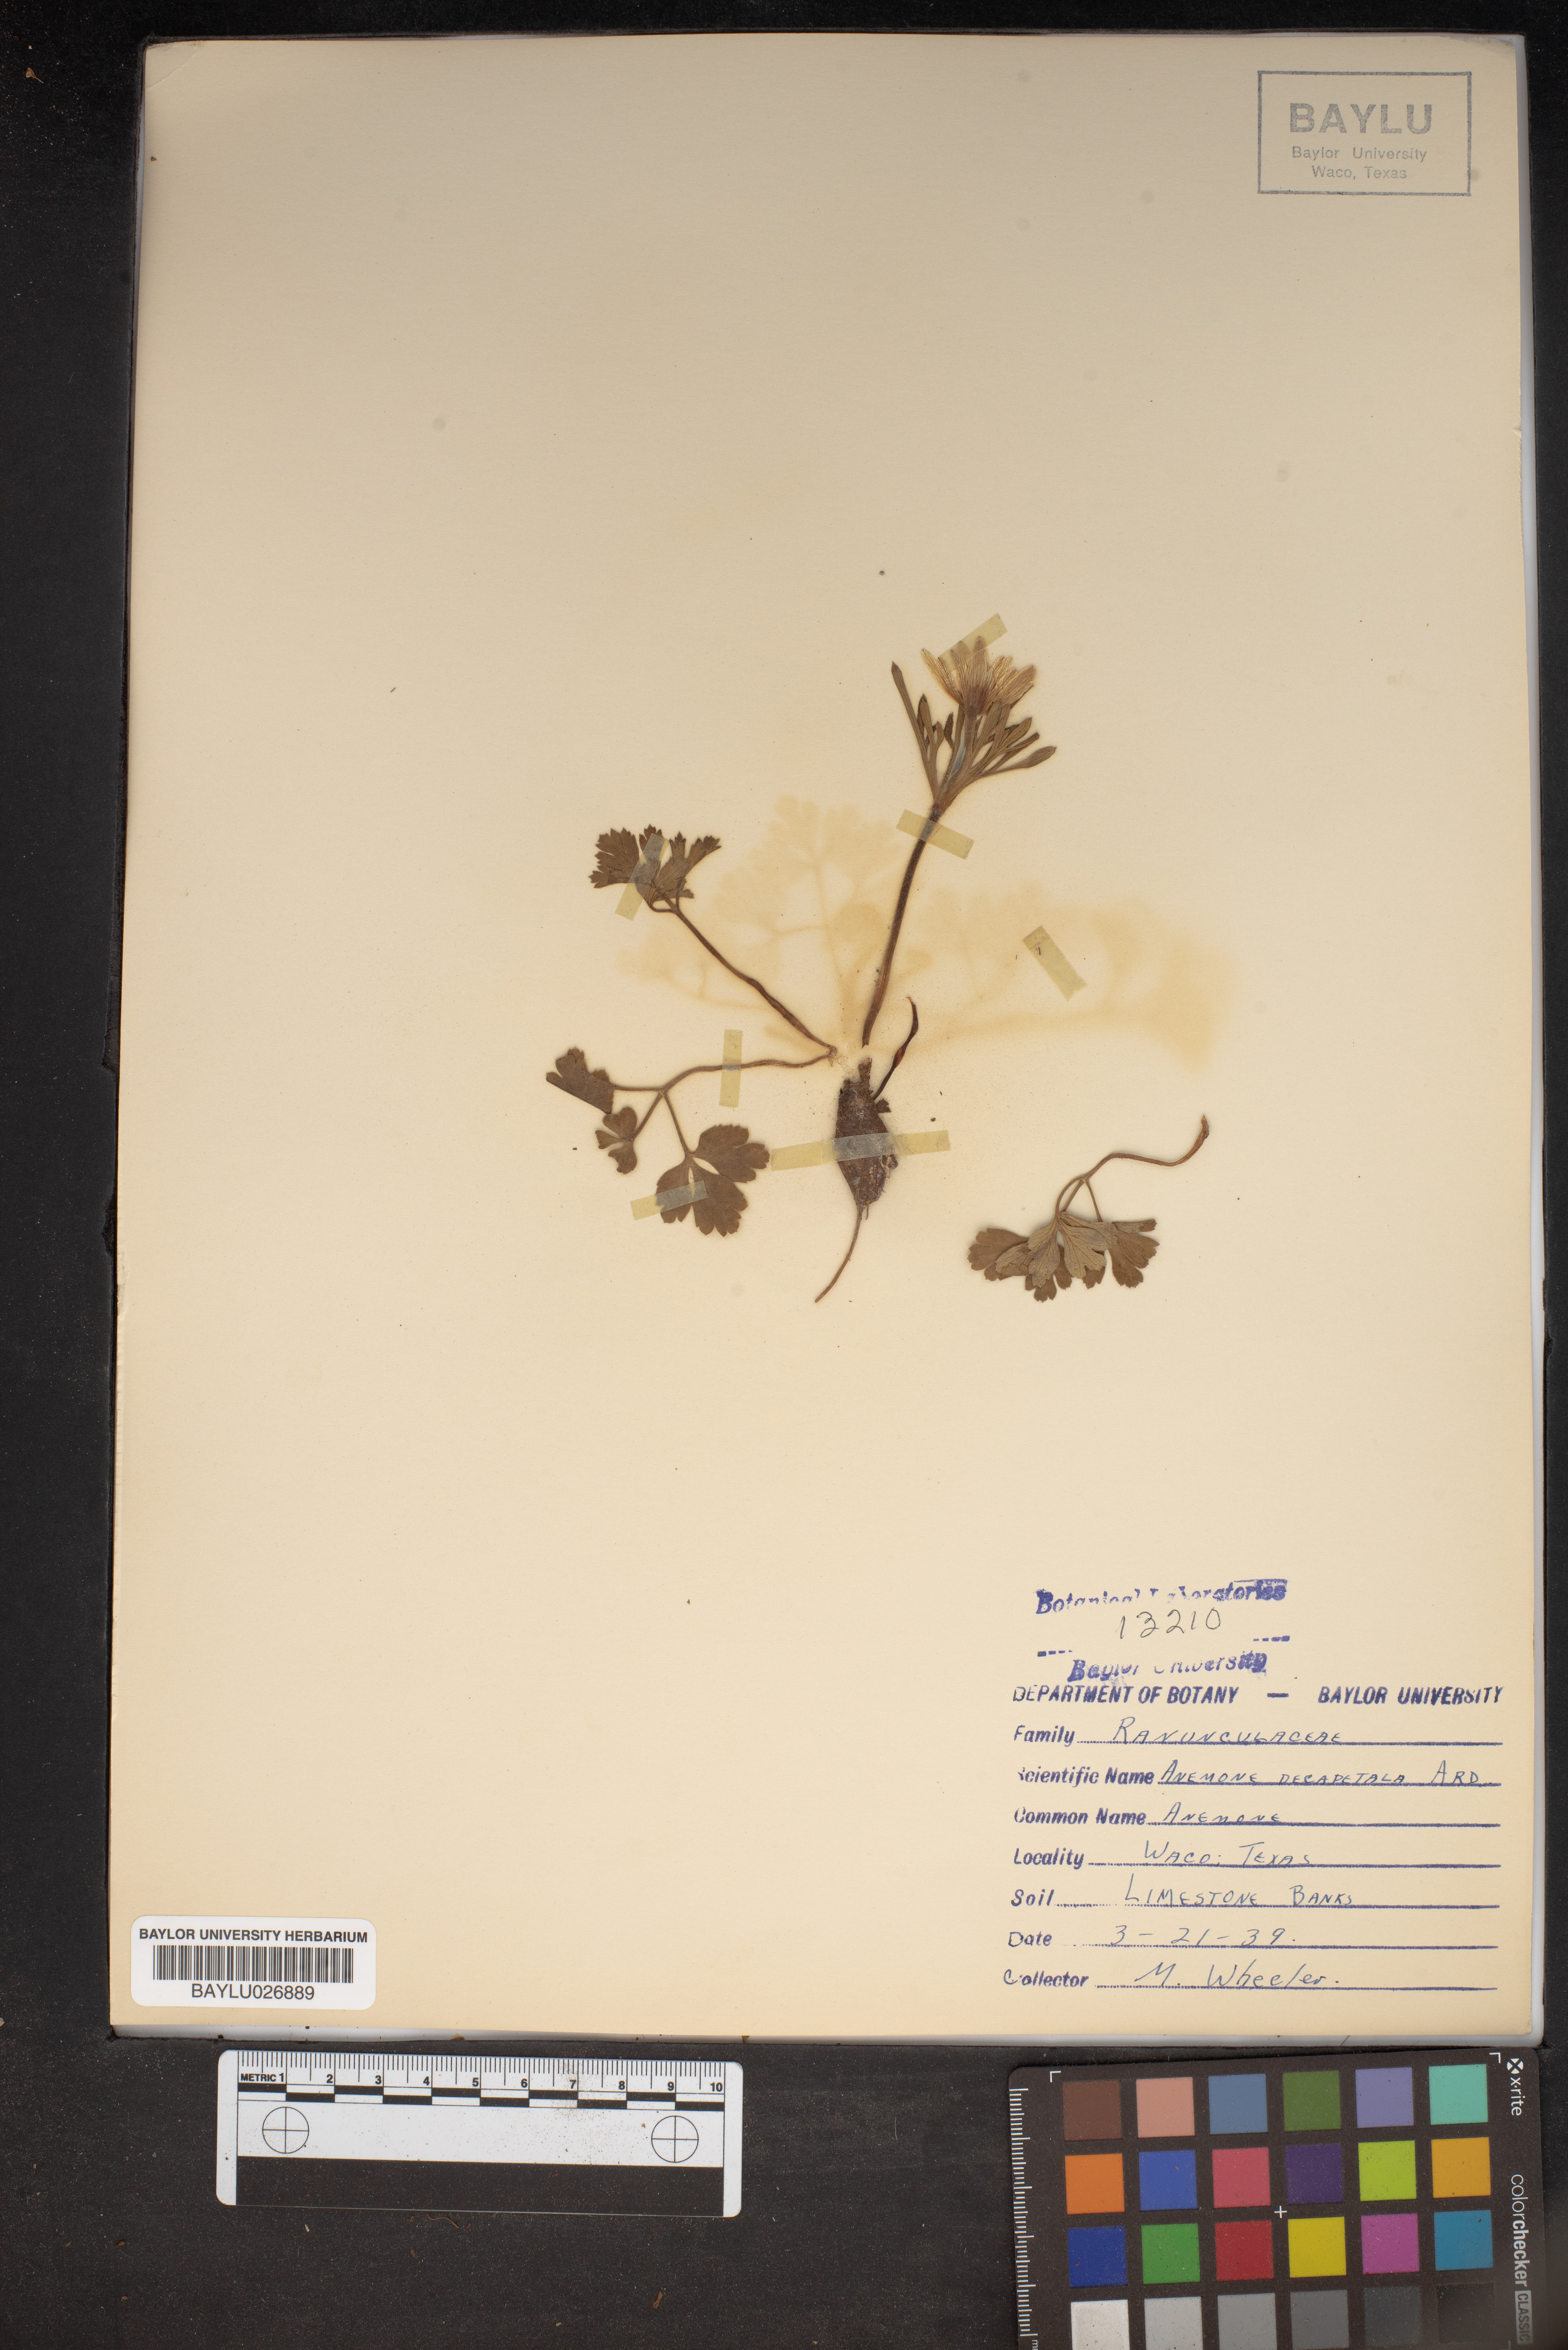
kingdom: Plantae
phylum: Tracheophyta
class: Magnoliopsida
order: Ranunculales
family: Ranunculaceae
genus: Anemone
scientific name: Anemone decapetala
